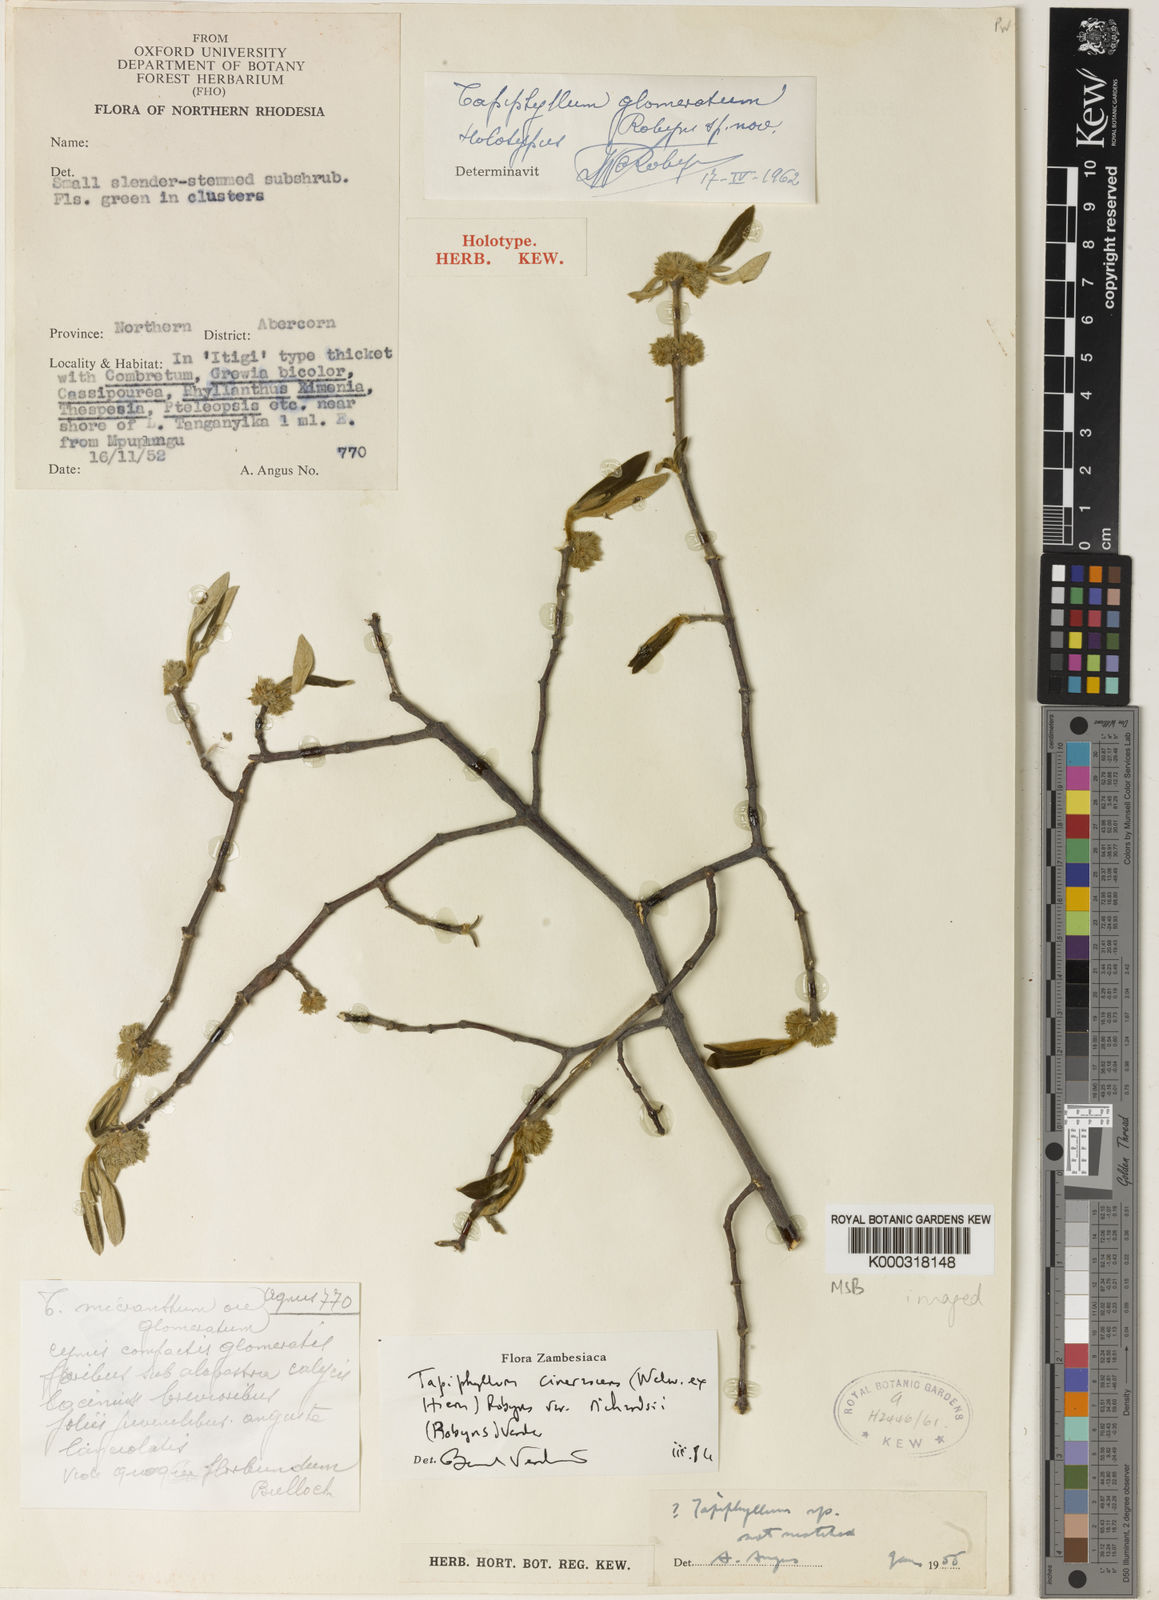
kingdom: Plantae
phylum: Tracheophyta
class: Magnoliopsida
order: Gentianales
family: Rubiaceae
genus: Vangueria
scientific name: Vangueria cinerascens
